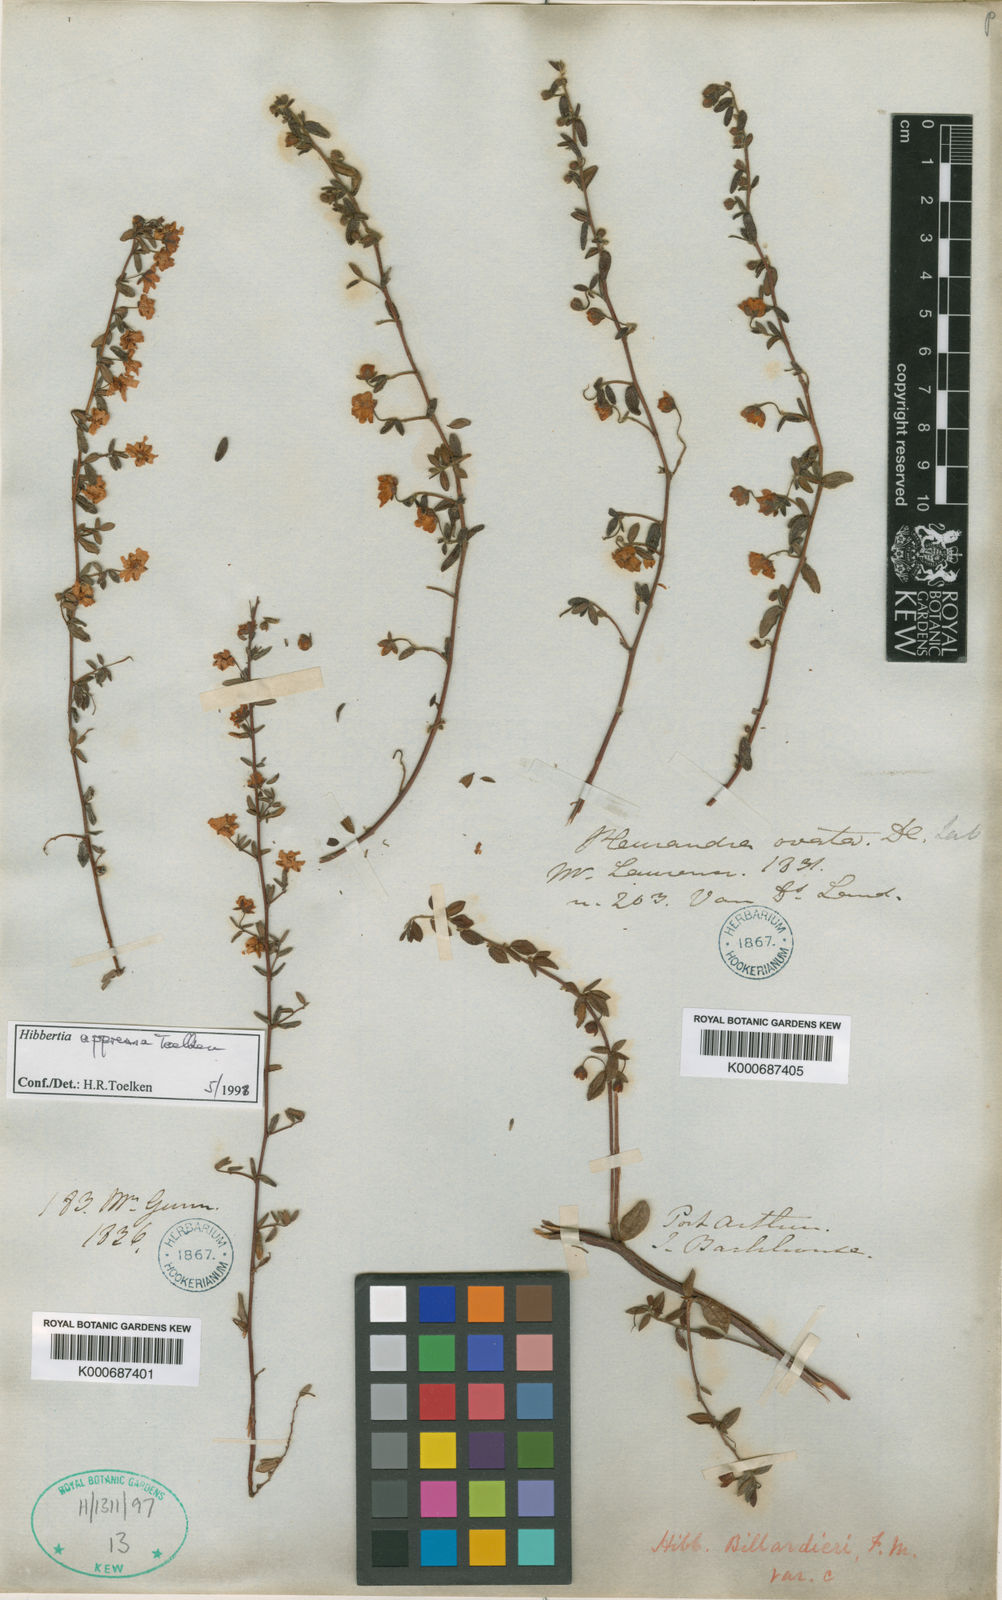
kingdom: Plantae
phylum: Tracheophyta
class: Magnoliopsida
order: Dilleniales
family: Dilleniaceae
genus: Hibbertia
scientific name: Hibbertia aspera
